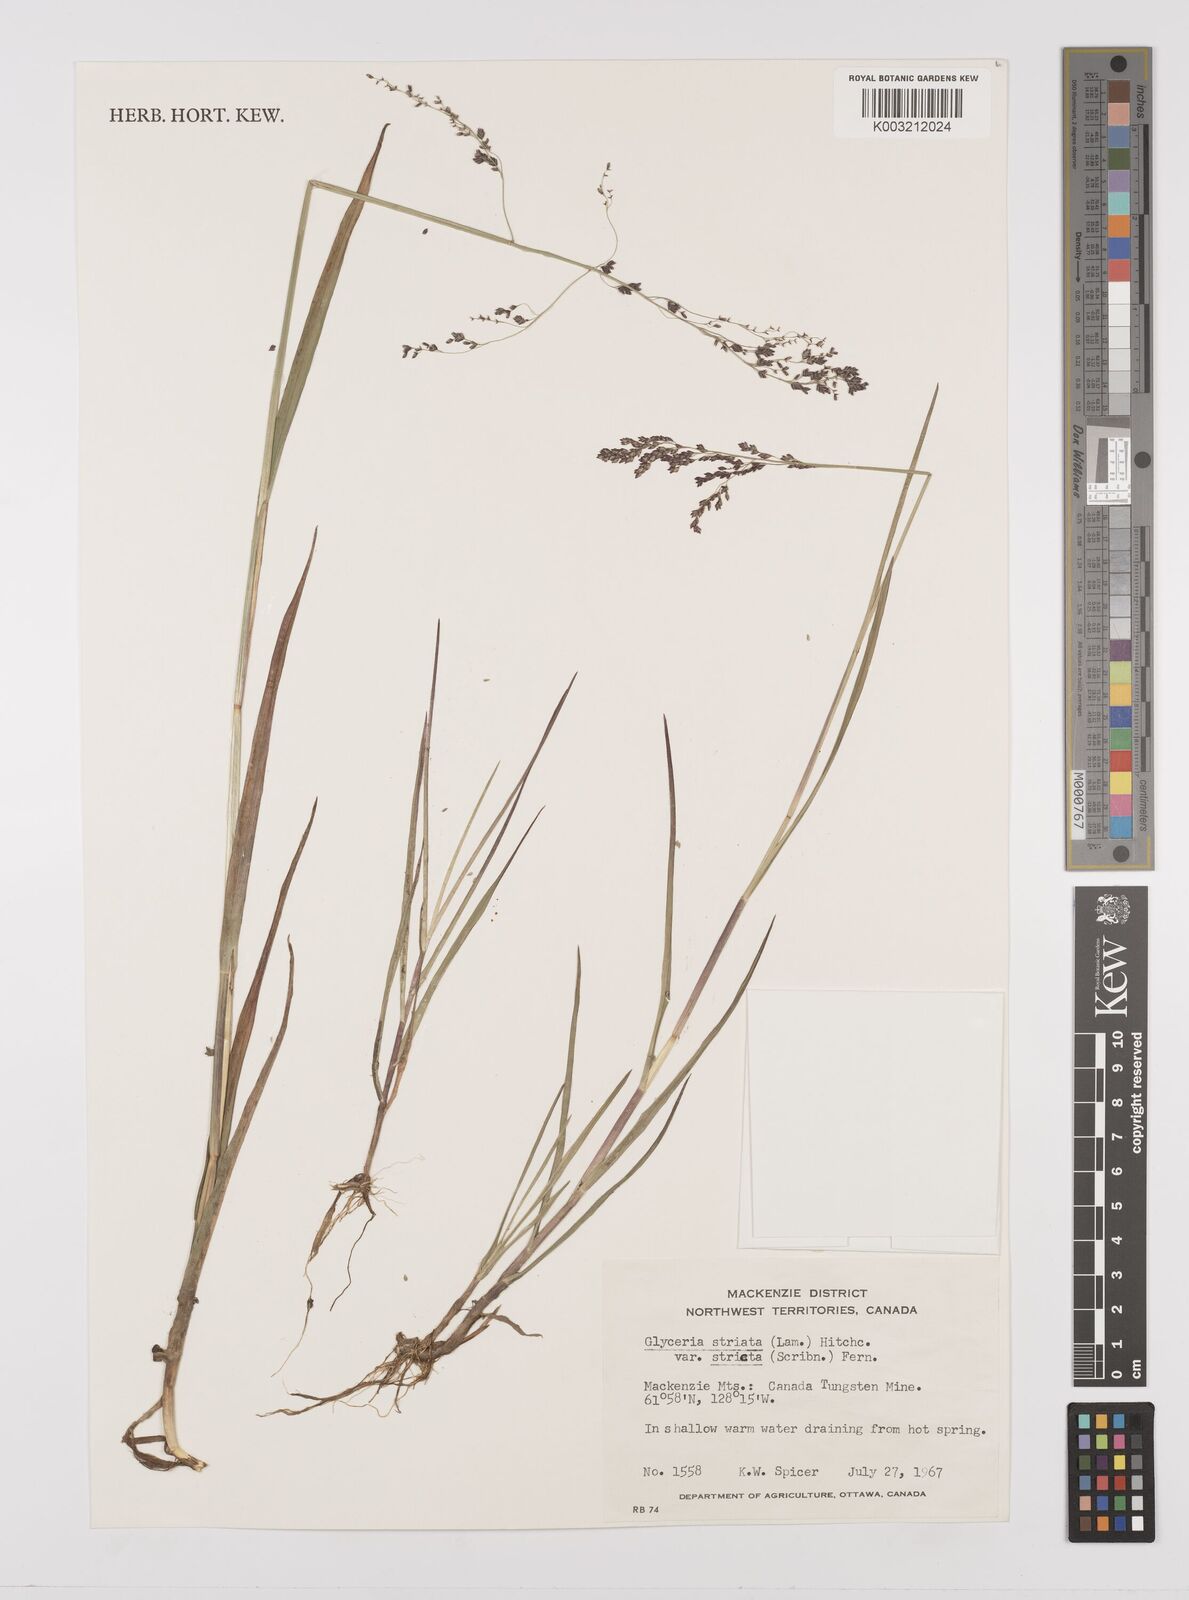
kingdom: Plantae
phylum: Tracheophyta
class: Liliopsida
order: Poales
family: Poaceae
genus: Glyceria
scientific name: Glyceria striata
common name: Fowl manna grass
